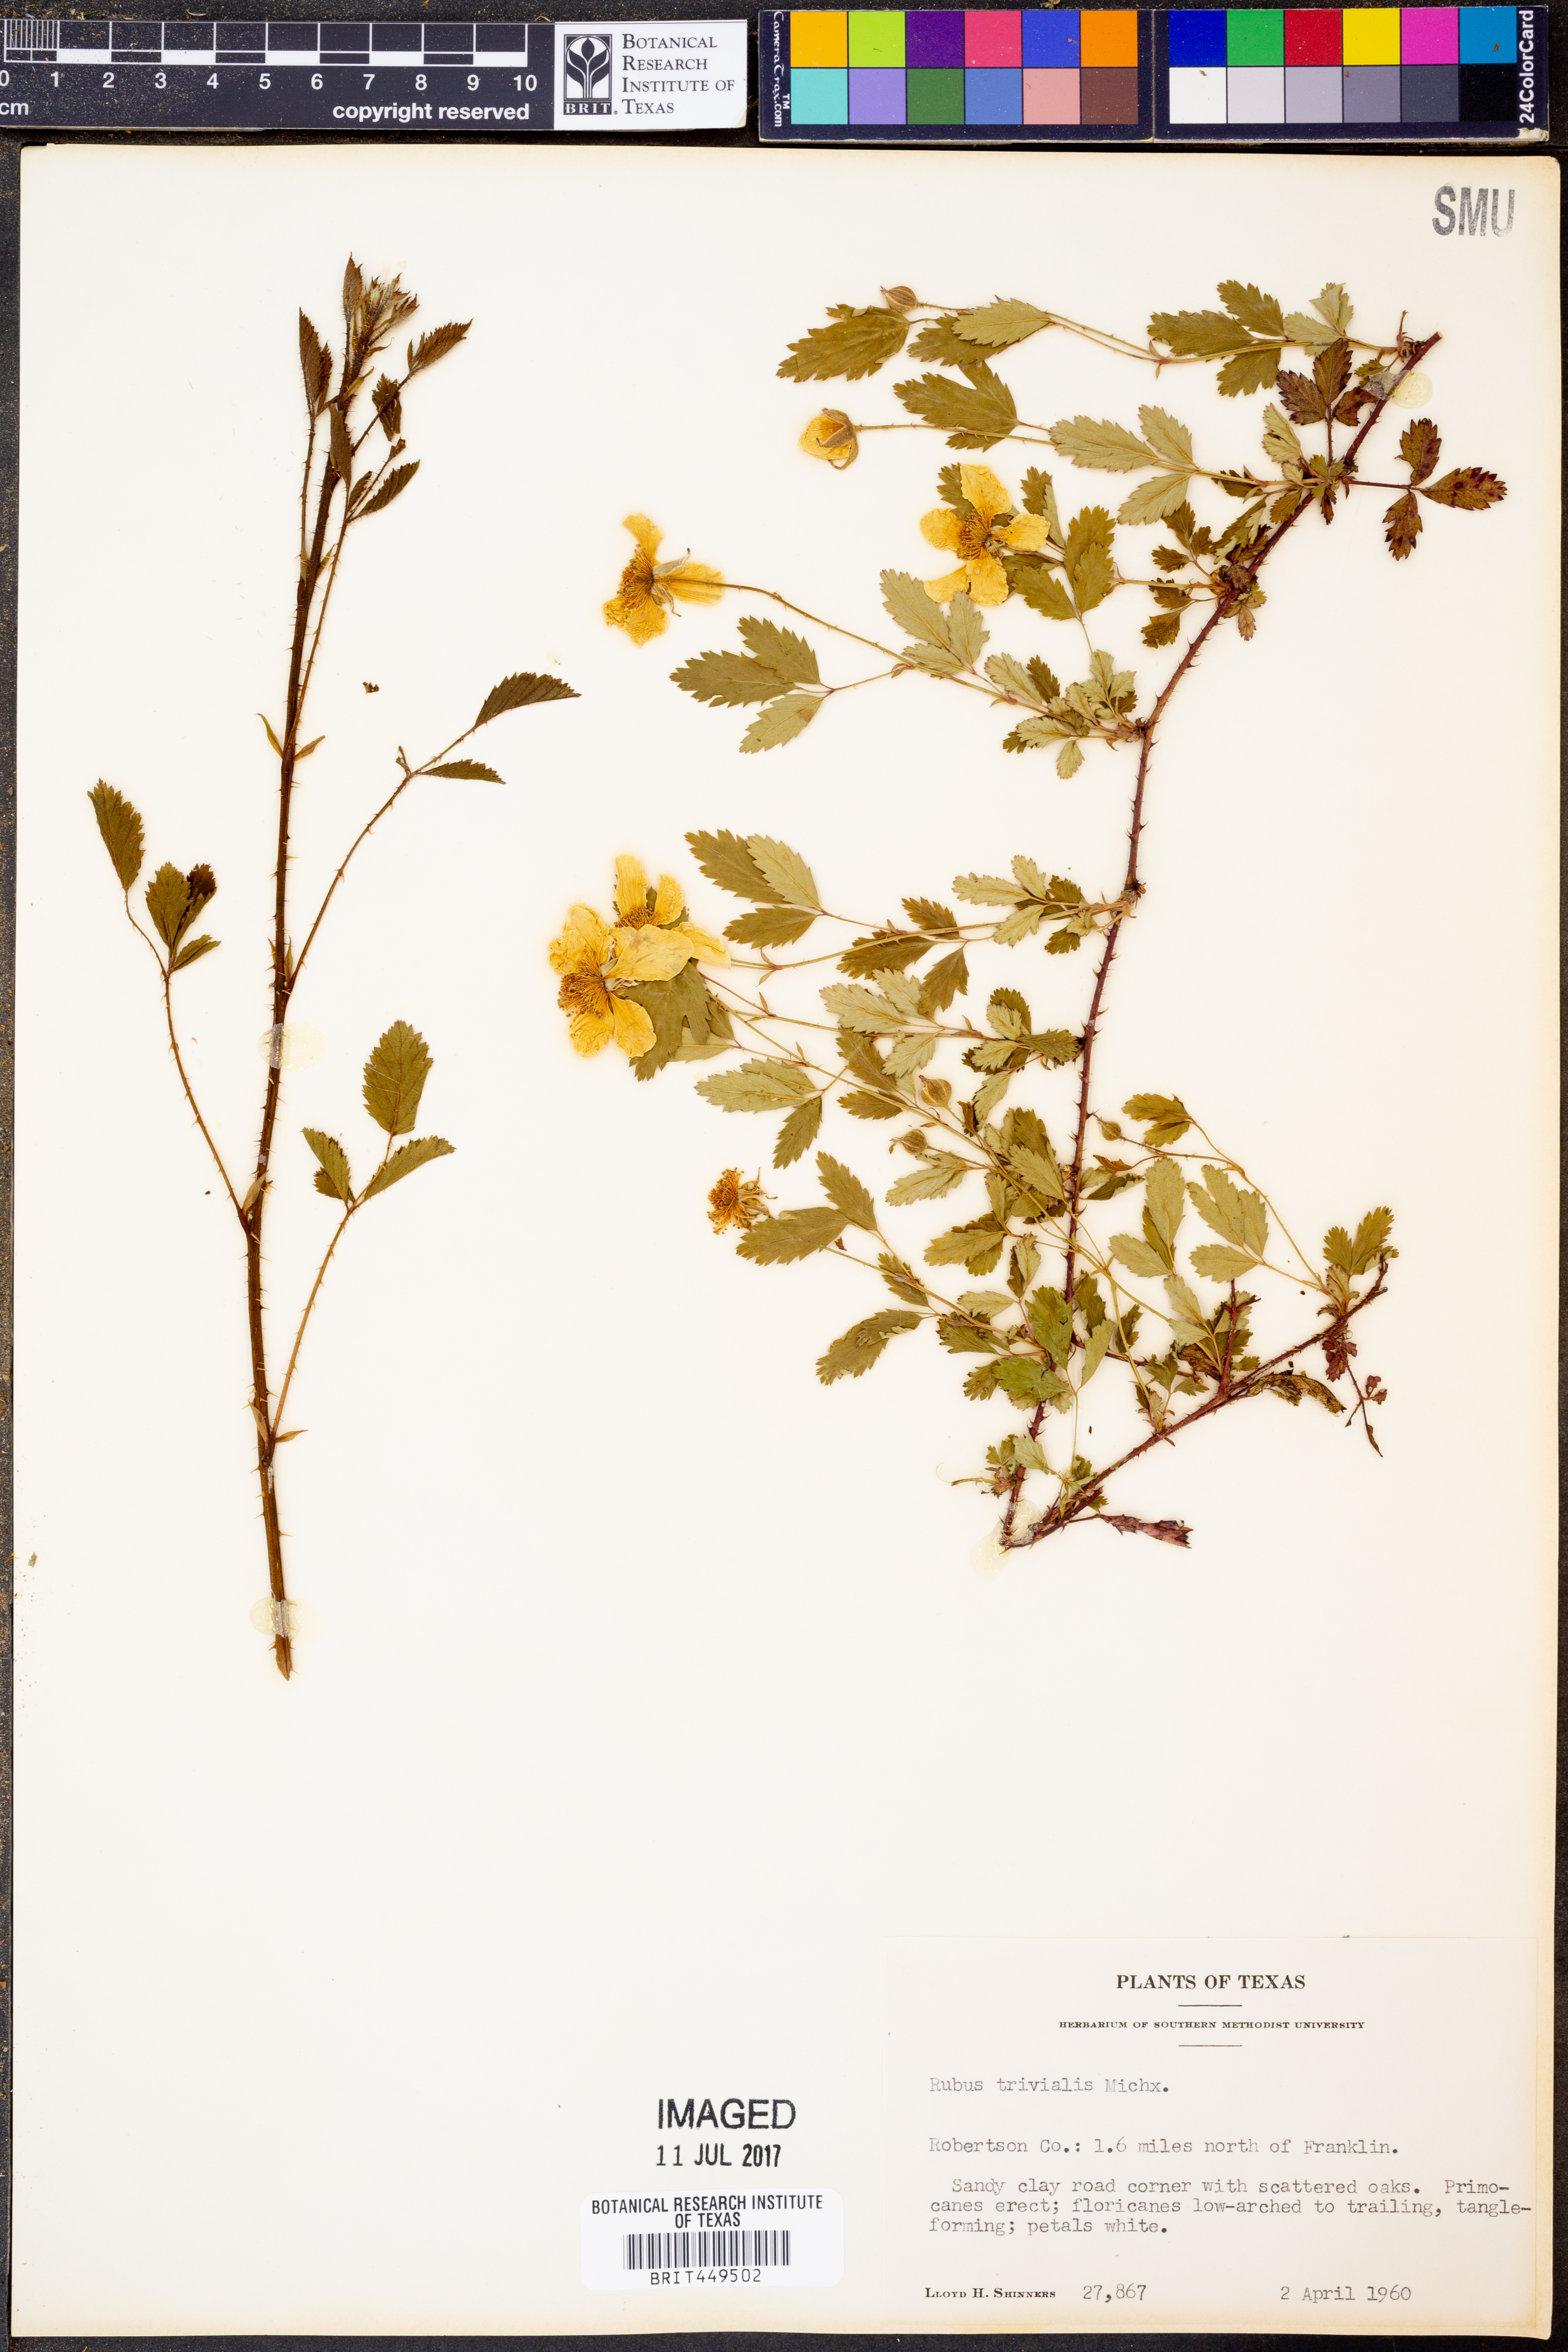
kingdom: Plantae
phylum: Tracheophyta
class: Magnoliopsida
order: Rosales
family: Rosaceae
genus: Rubus
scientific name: Rubus trivialis
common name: Southern dewberry
